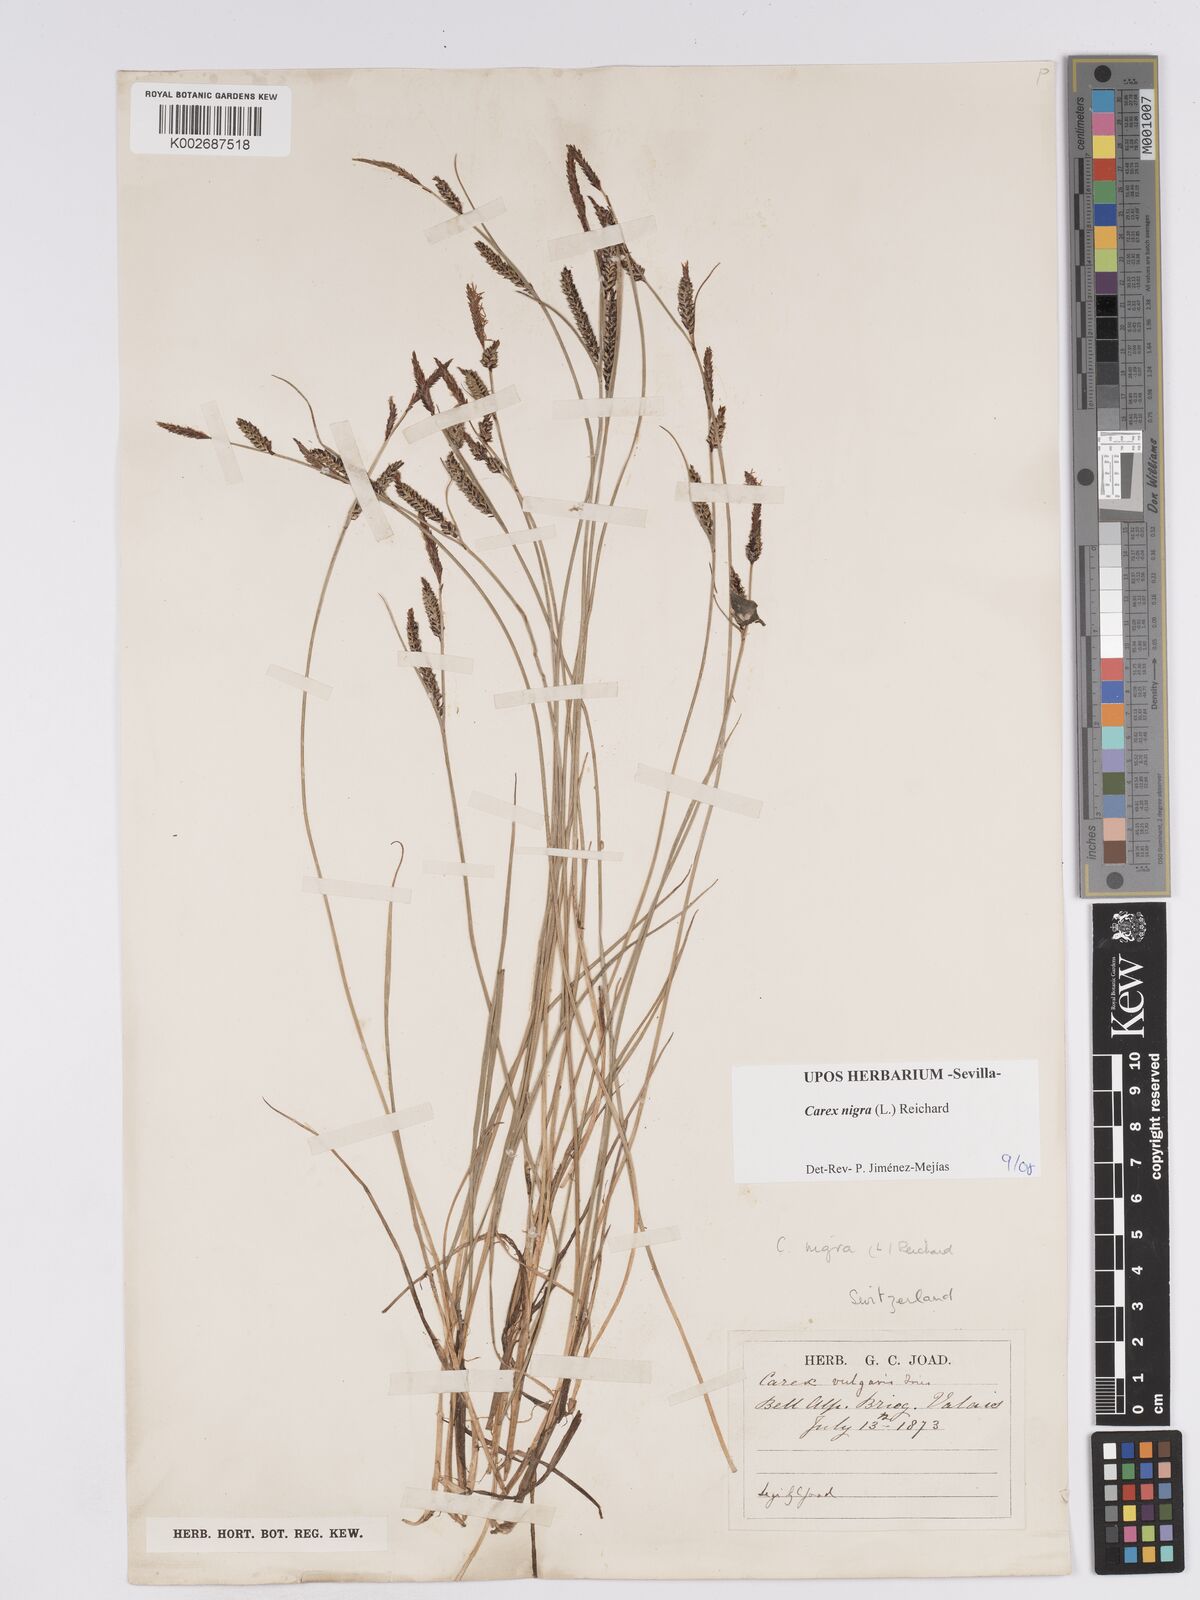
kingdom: Plantae
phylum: Tracheophyta
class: Liliopsida
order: Poales
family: Cyperaceae
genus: Carex
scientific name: Carex nigra
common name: Common sedge
